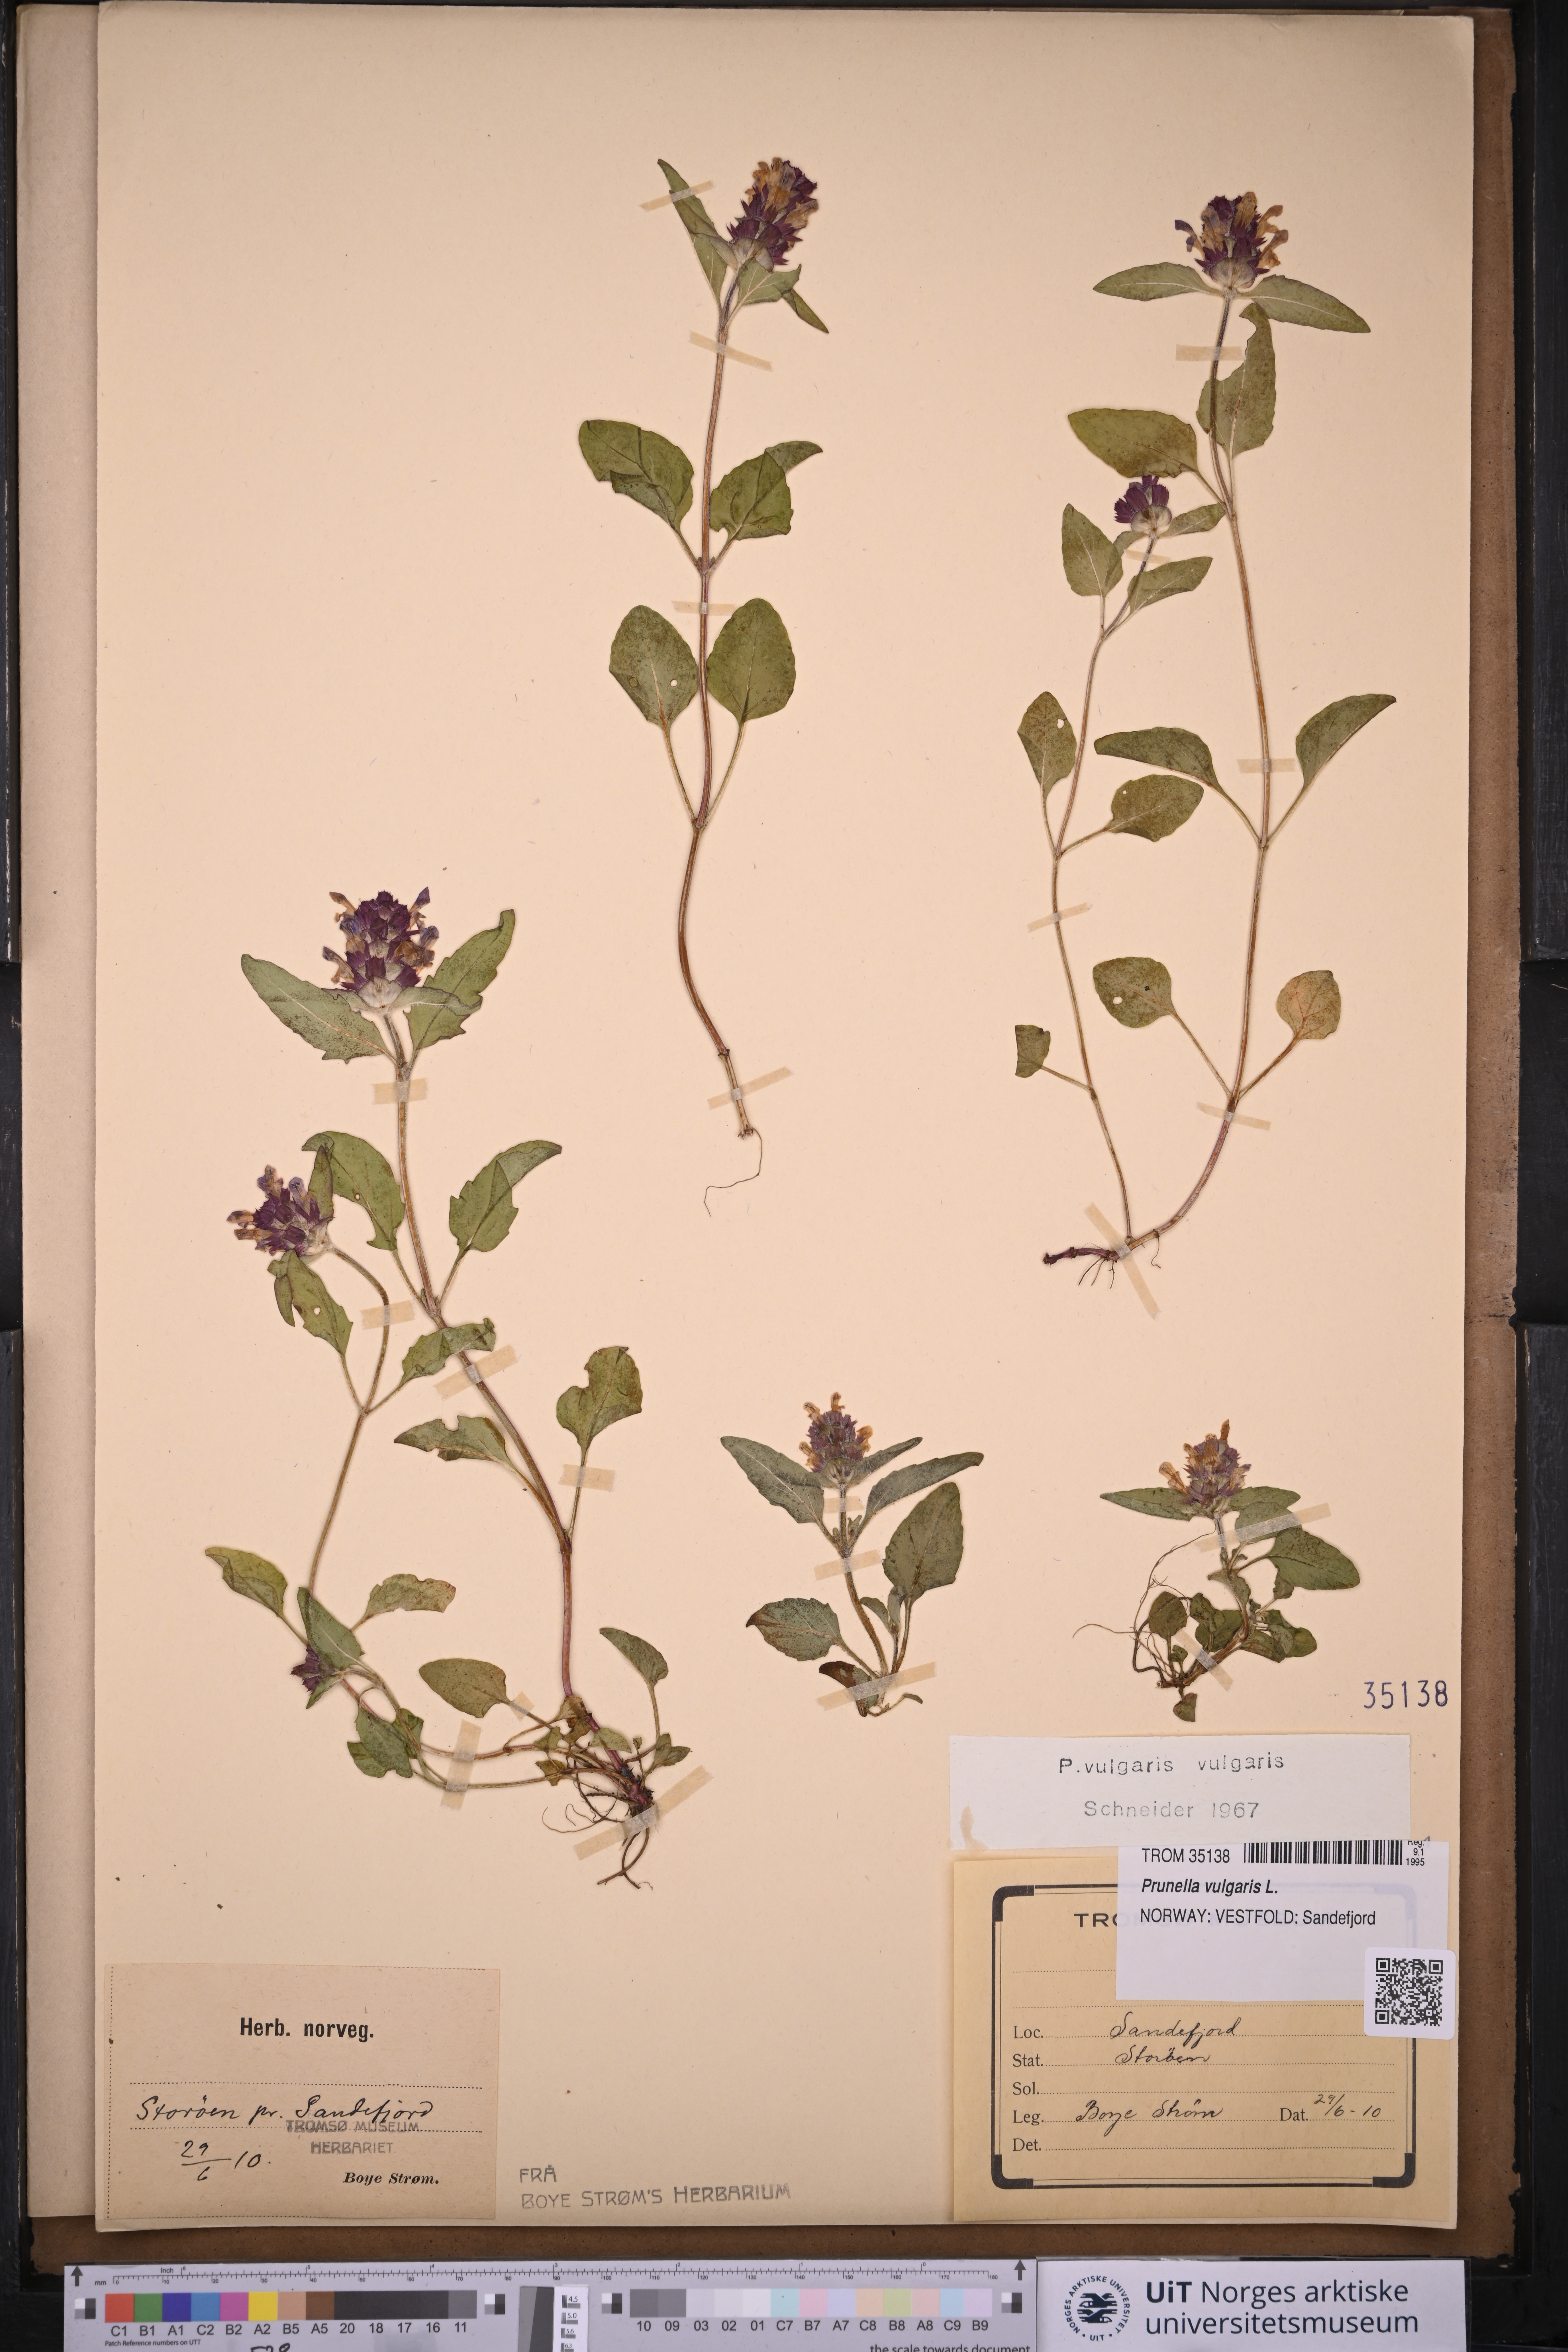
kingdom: Plantae
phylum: Tracheophyta
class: Magnoliopsida
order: Lamiales
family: Lamiaceae
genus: Prunella
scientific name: Prunella vulgaris
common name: Heal-all
